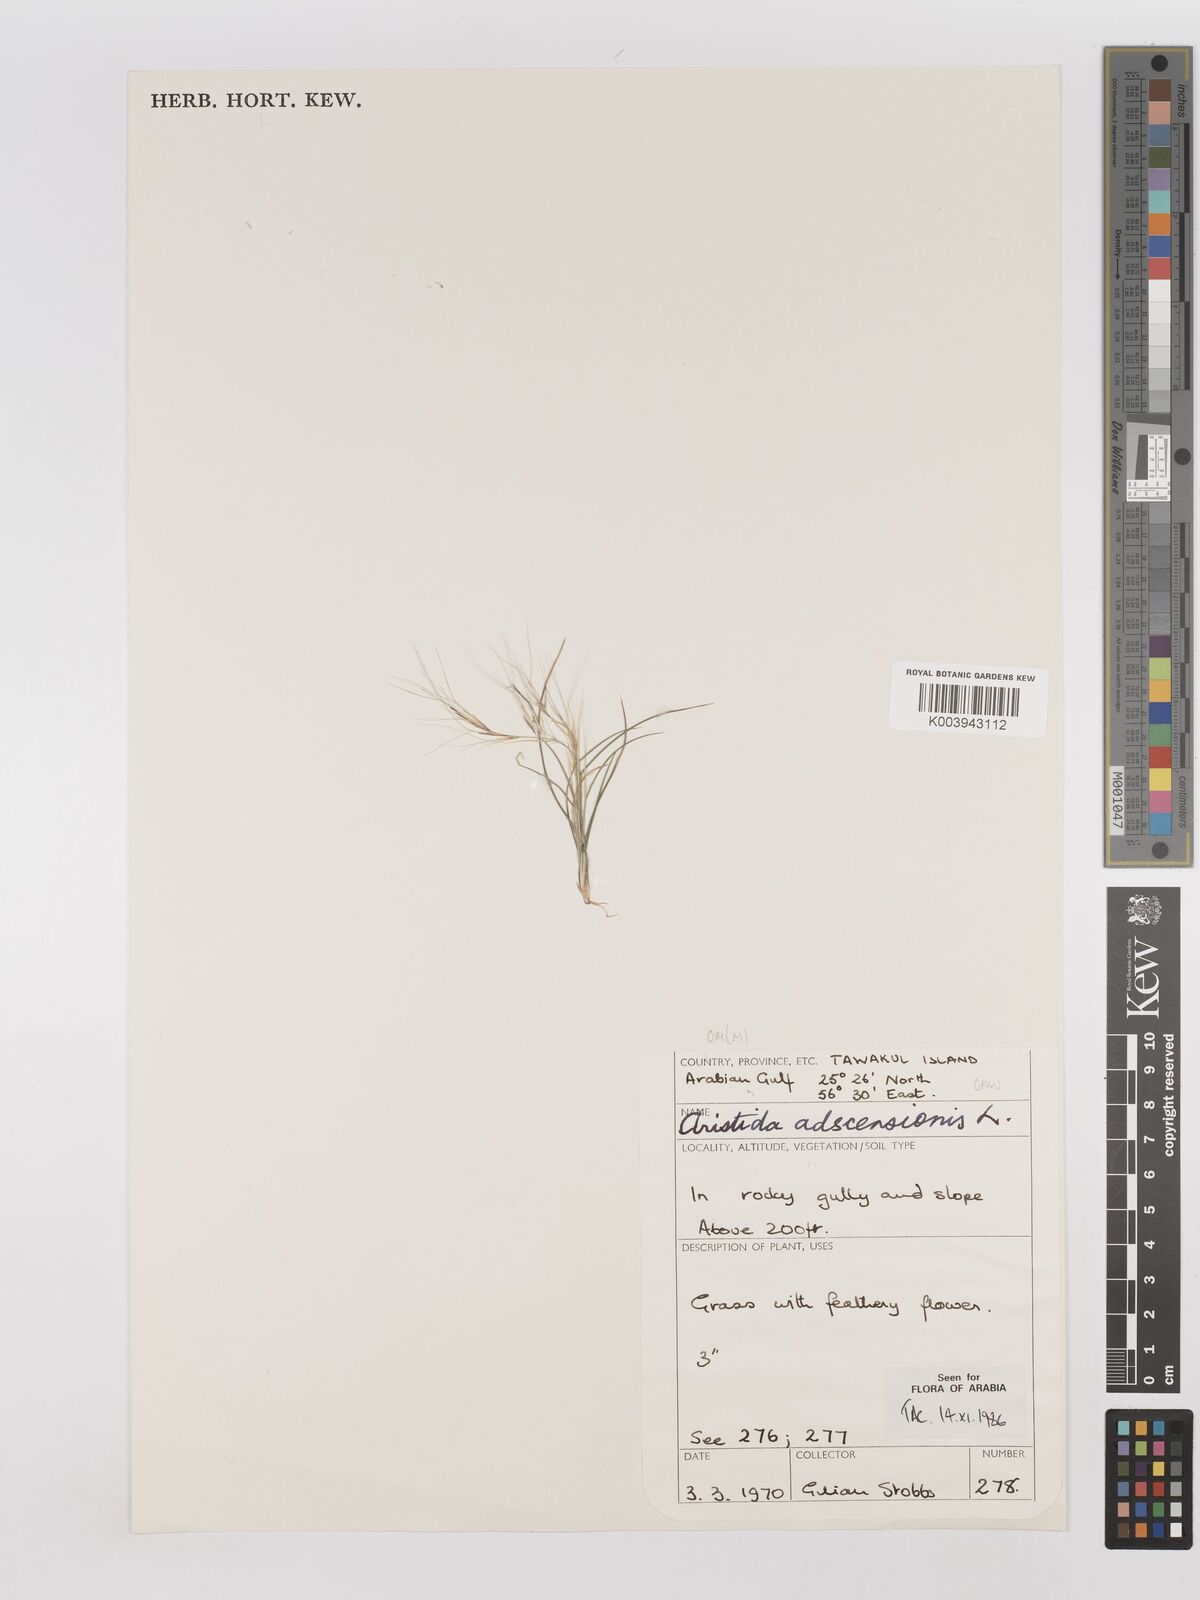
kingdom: Plantae
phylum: Tracheophyta
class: Liliopsida
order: Poales
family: Poaceae
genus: Aristida
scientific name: Aristida adscensionis
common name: Sixweeks threeawn
